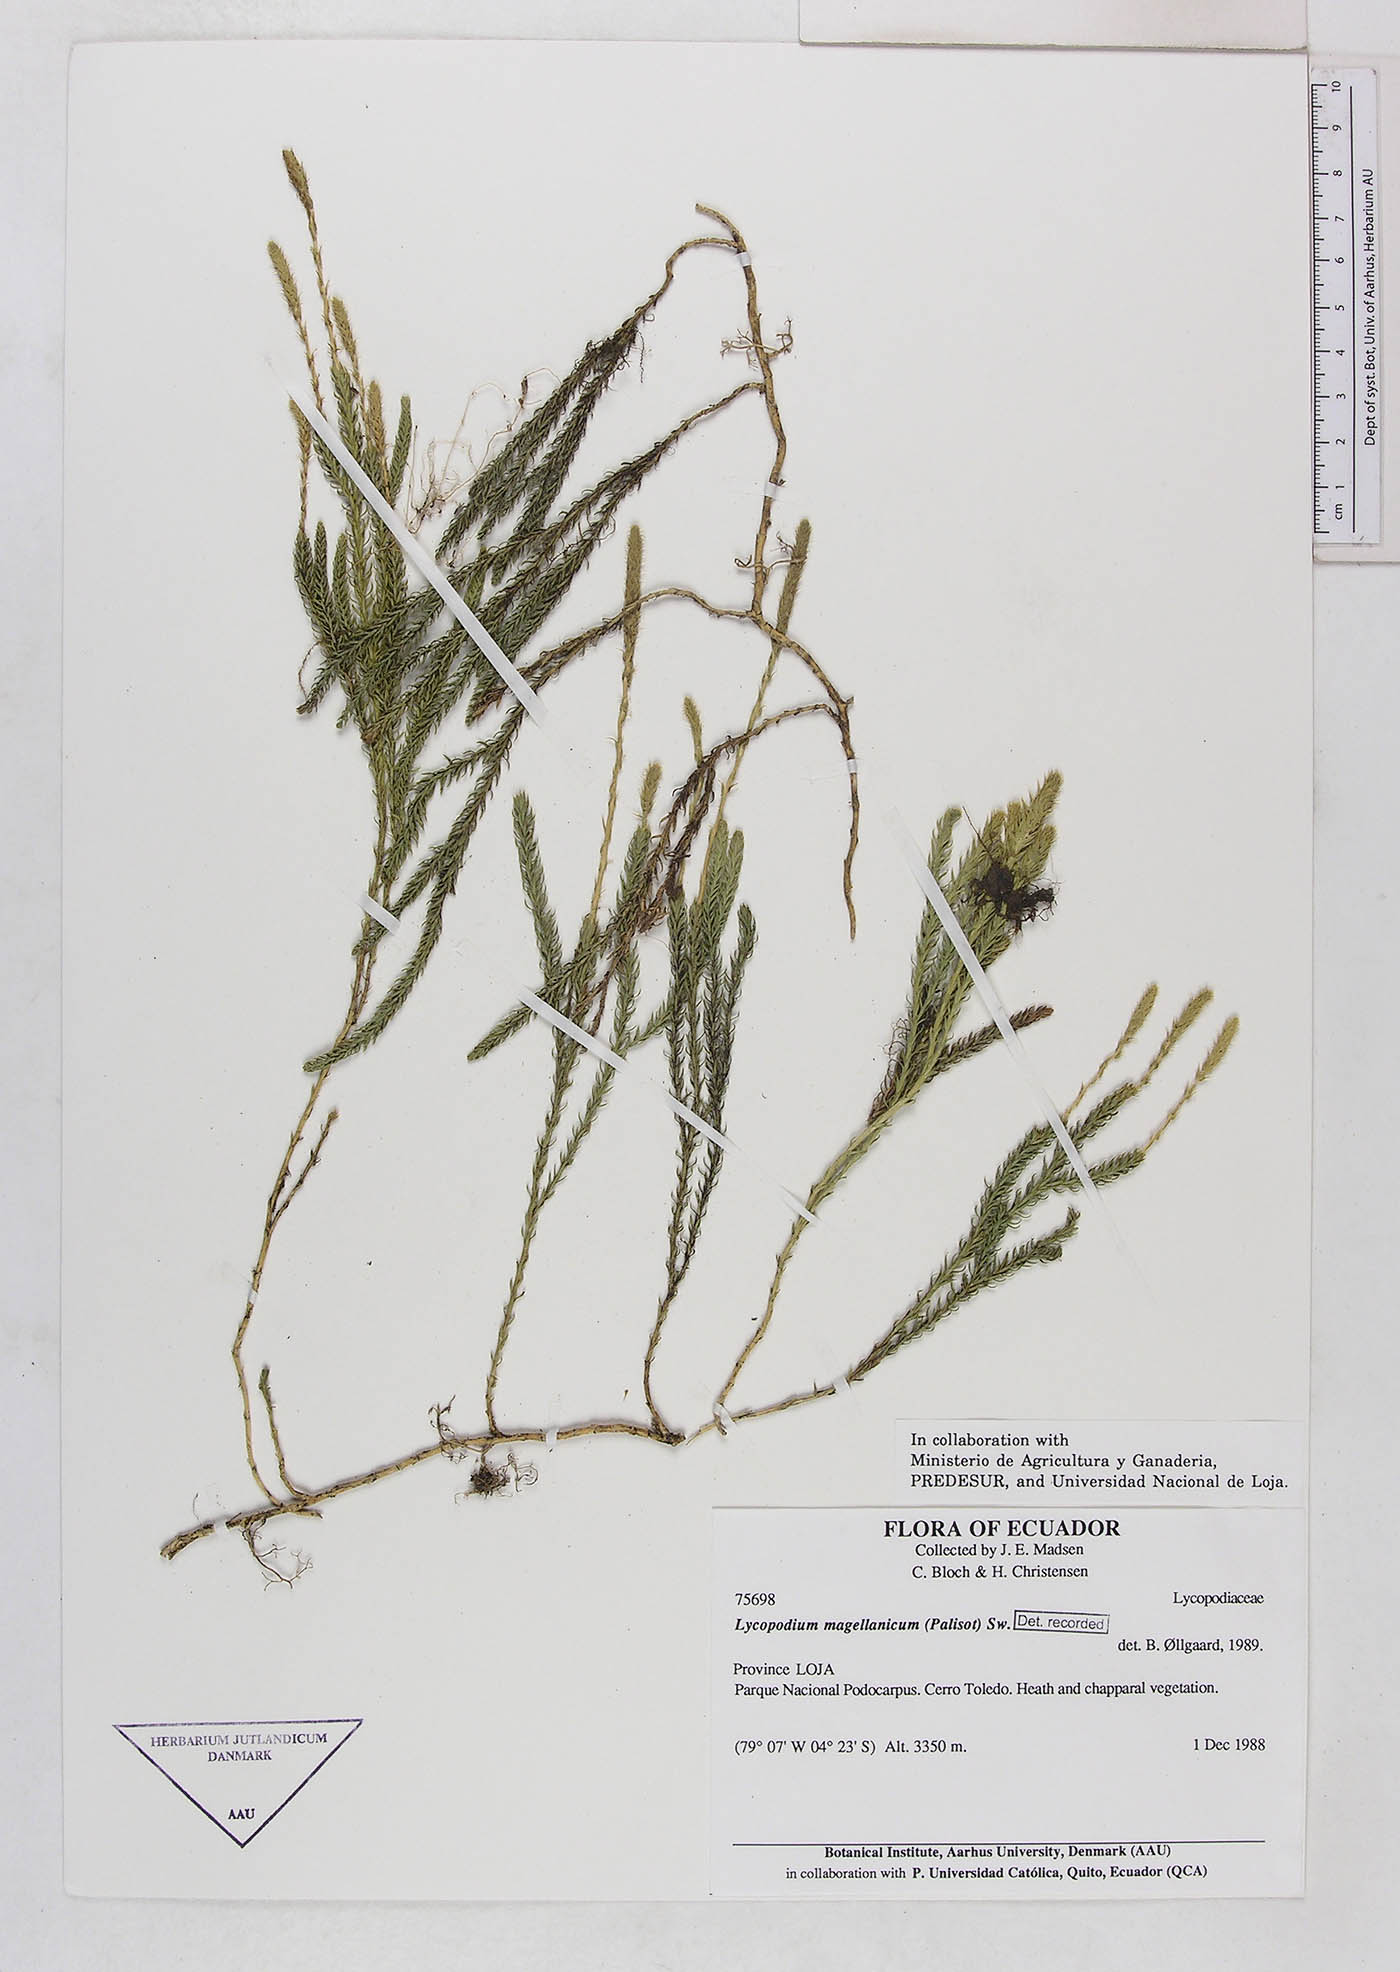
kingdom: Plantae
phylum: Tracheophyta
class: Lycopodiopsida
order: Lycopodiales
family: Lycopodiaceae
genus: Austrolycopodium
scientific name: Austrolycopodium magellanicum
